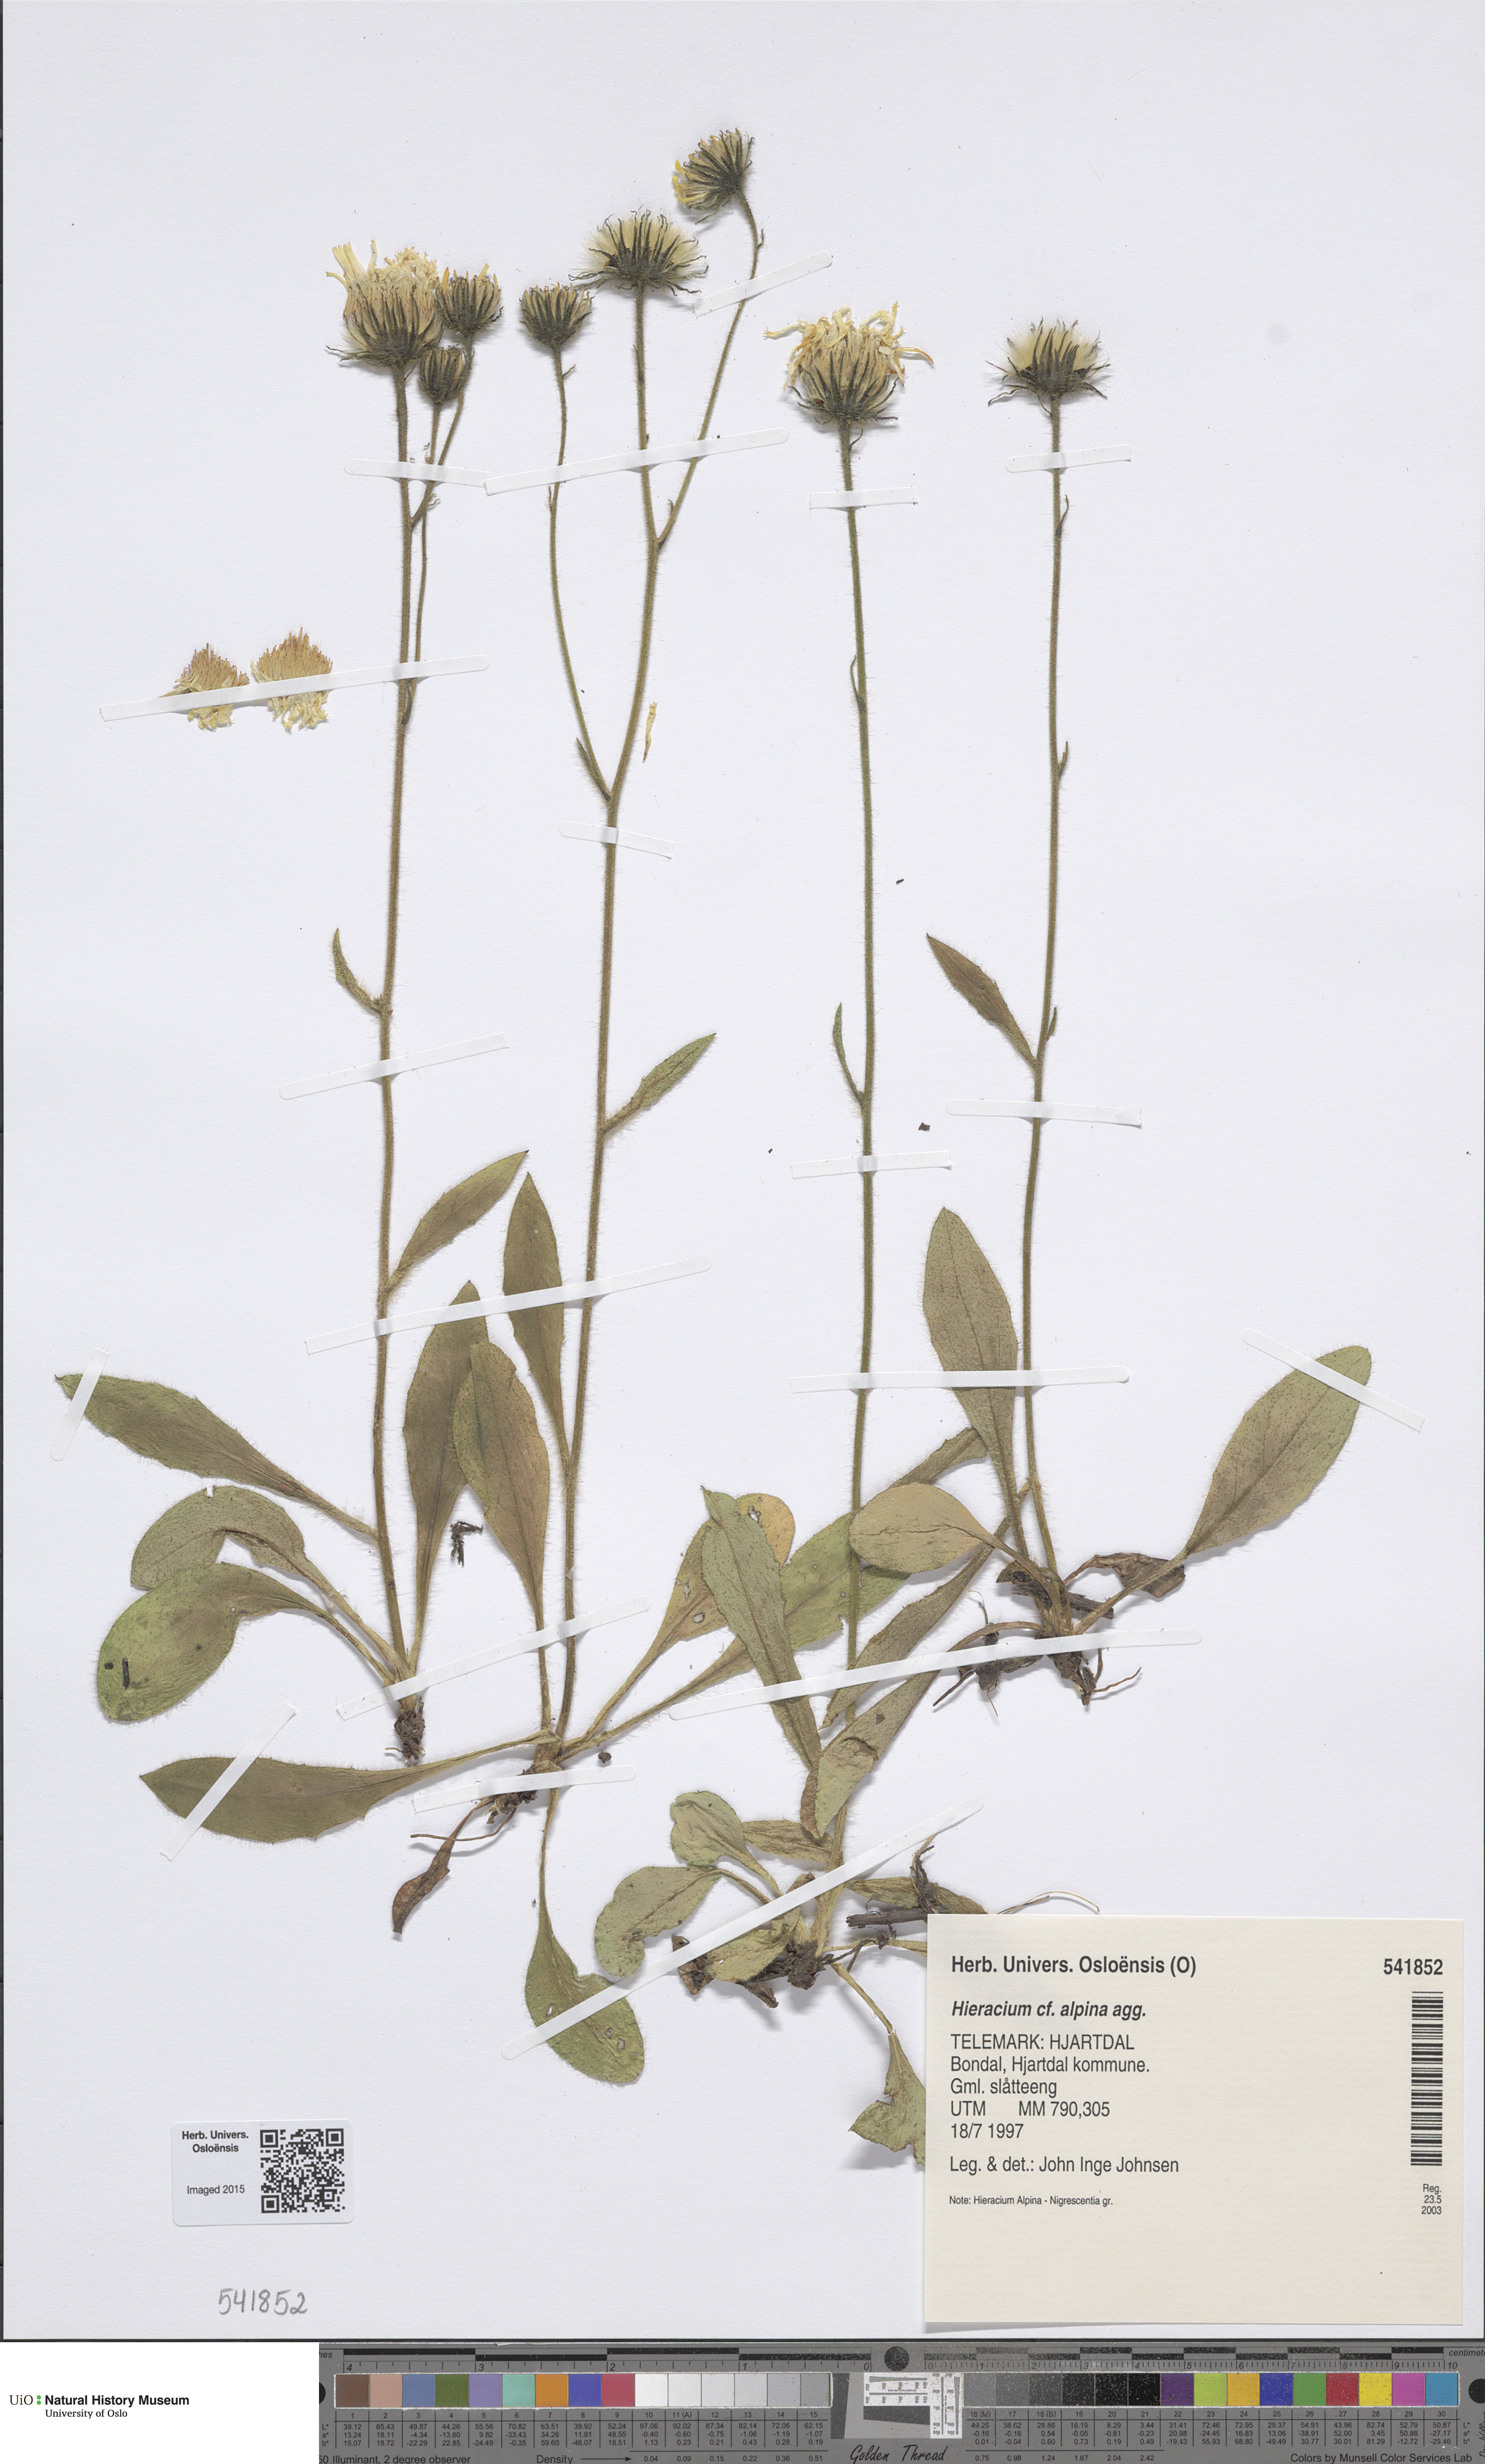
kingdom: Plantae
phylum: Tracheophyta
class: Magnoliopsida
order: Asterales
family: Asteraceae
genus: Hieracium
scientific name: Hieracium alpinum
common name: Alpine hawkweed
